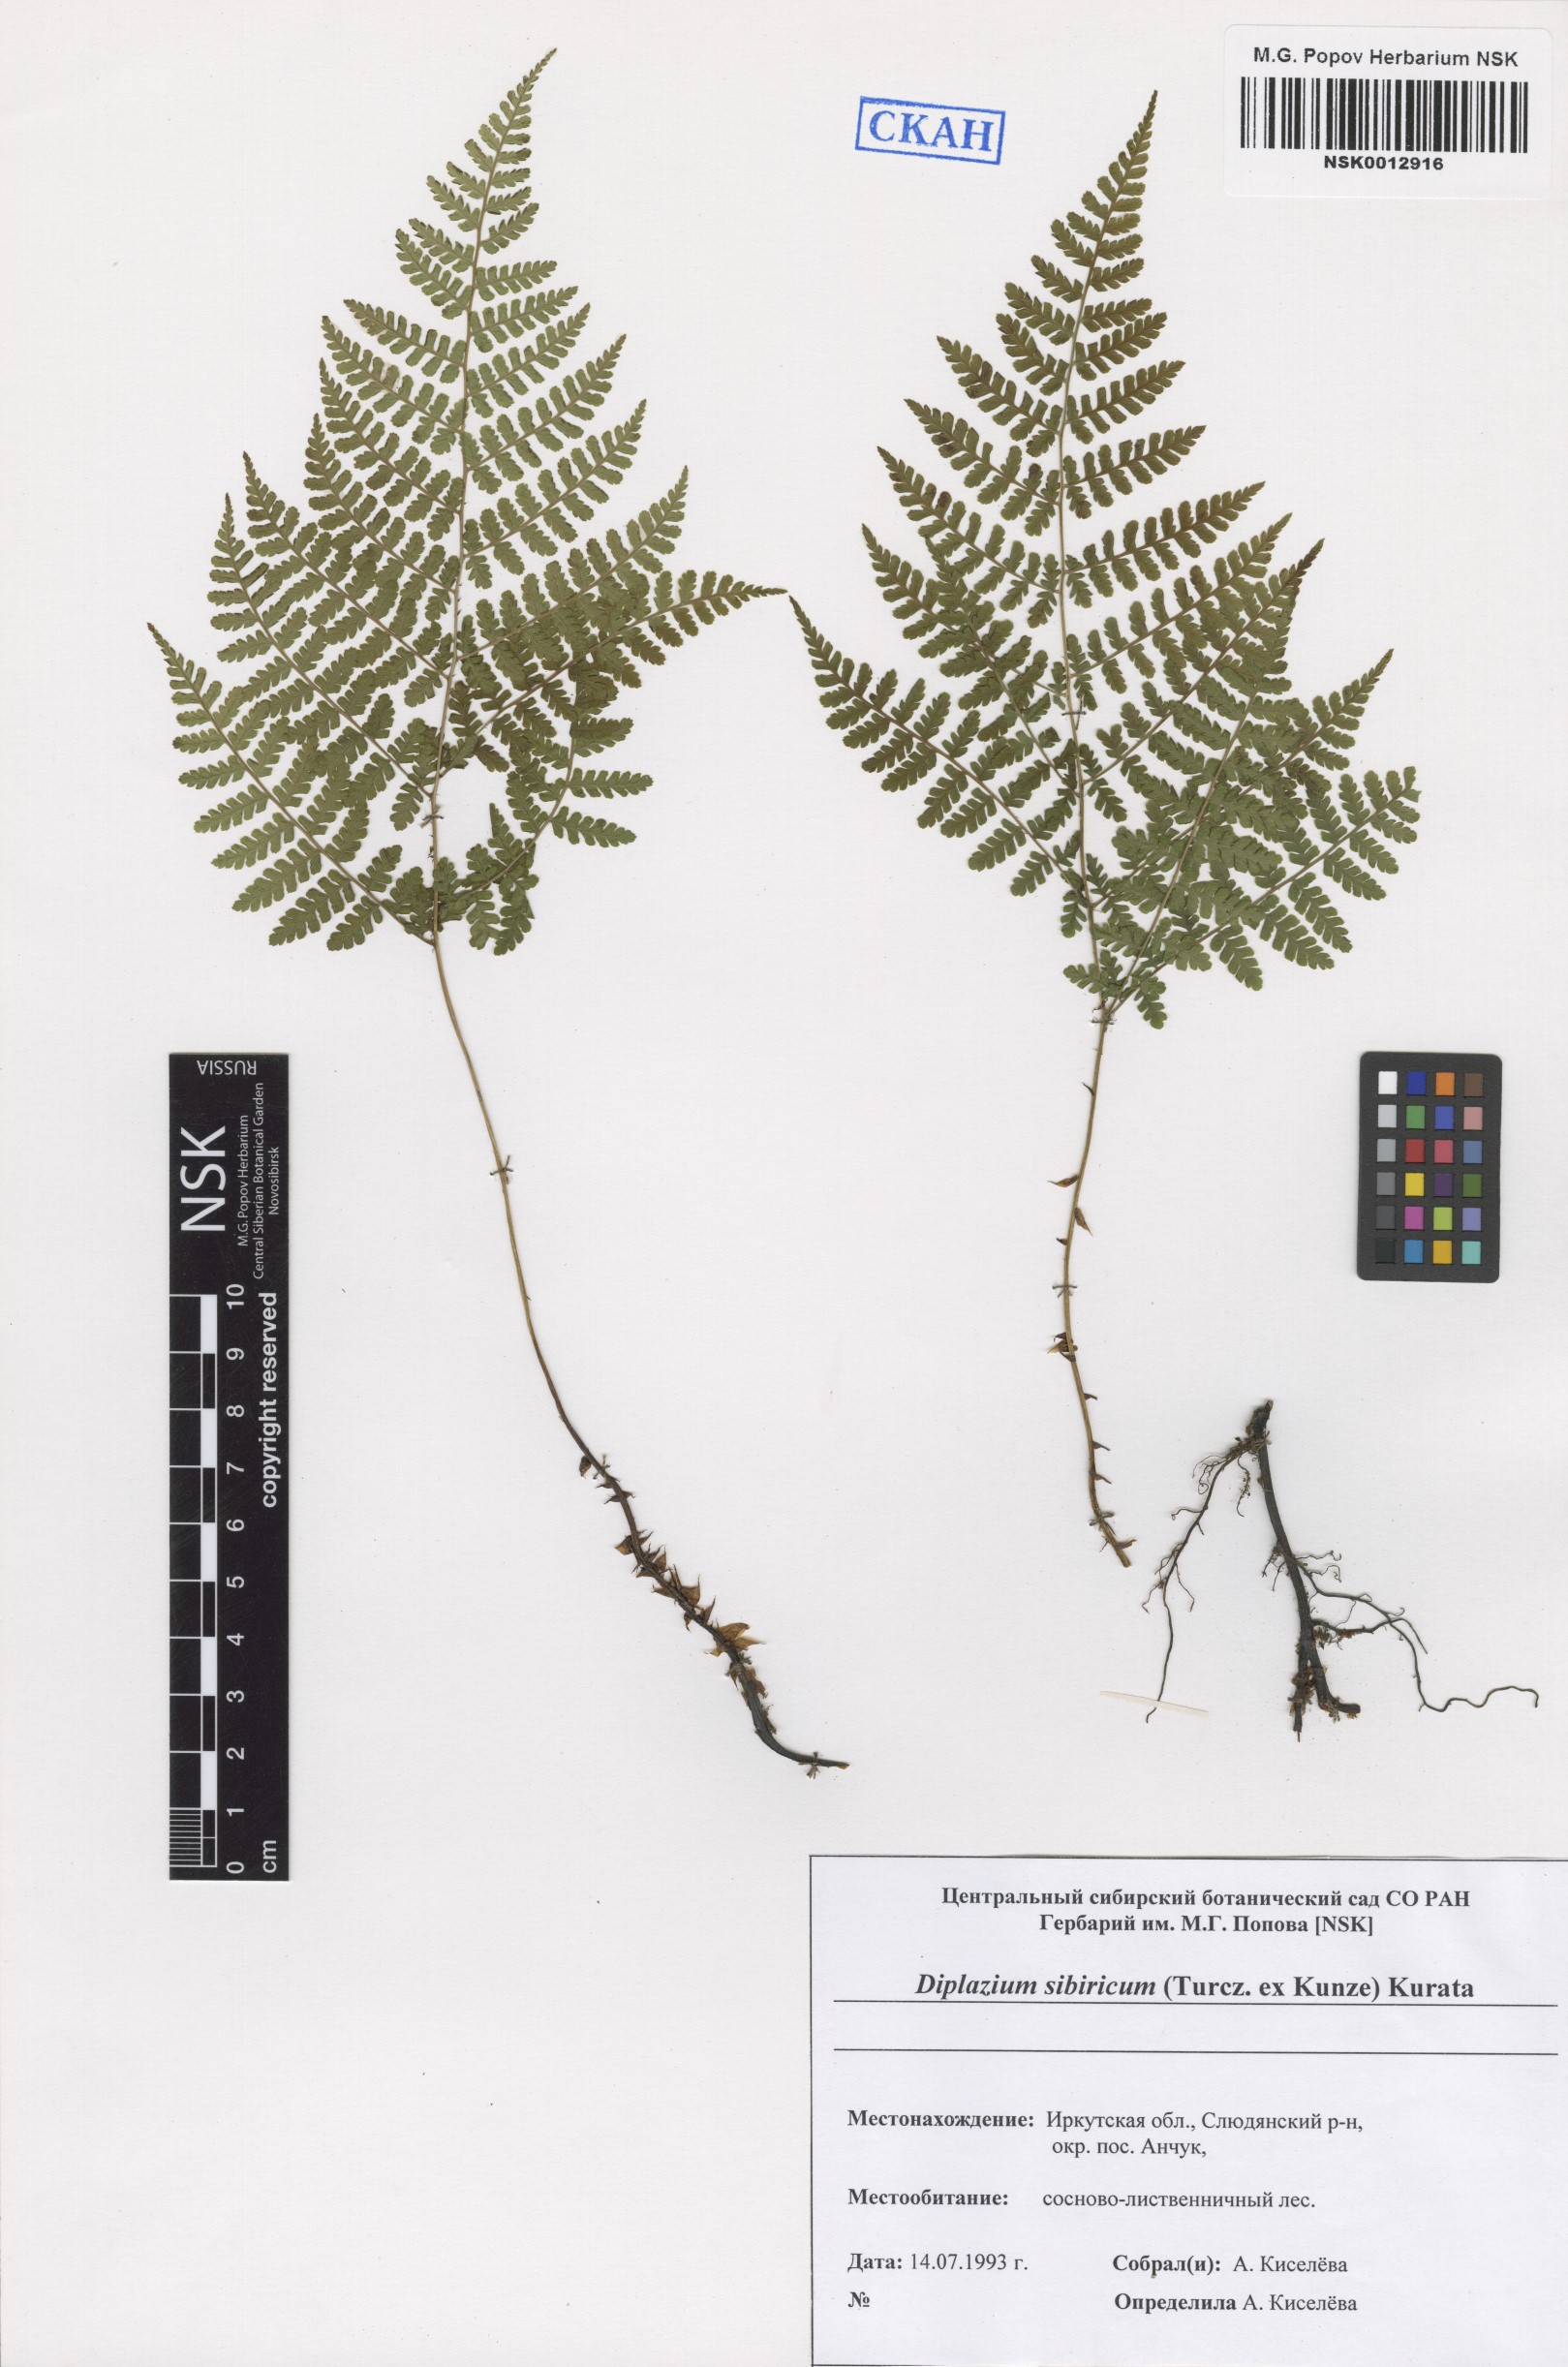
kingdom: Plantae
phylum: Tracheophyta
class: Polypodiopsida
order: Polypodiales
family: Athyriaceae
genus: Diplazium
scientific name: Diplazium sibiricum
